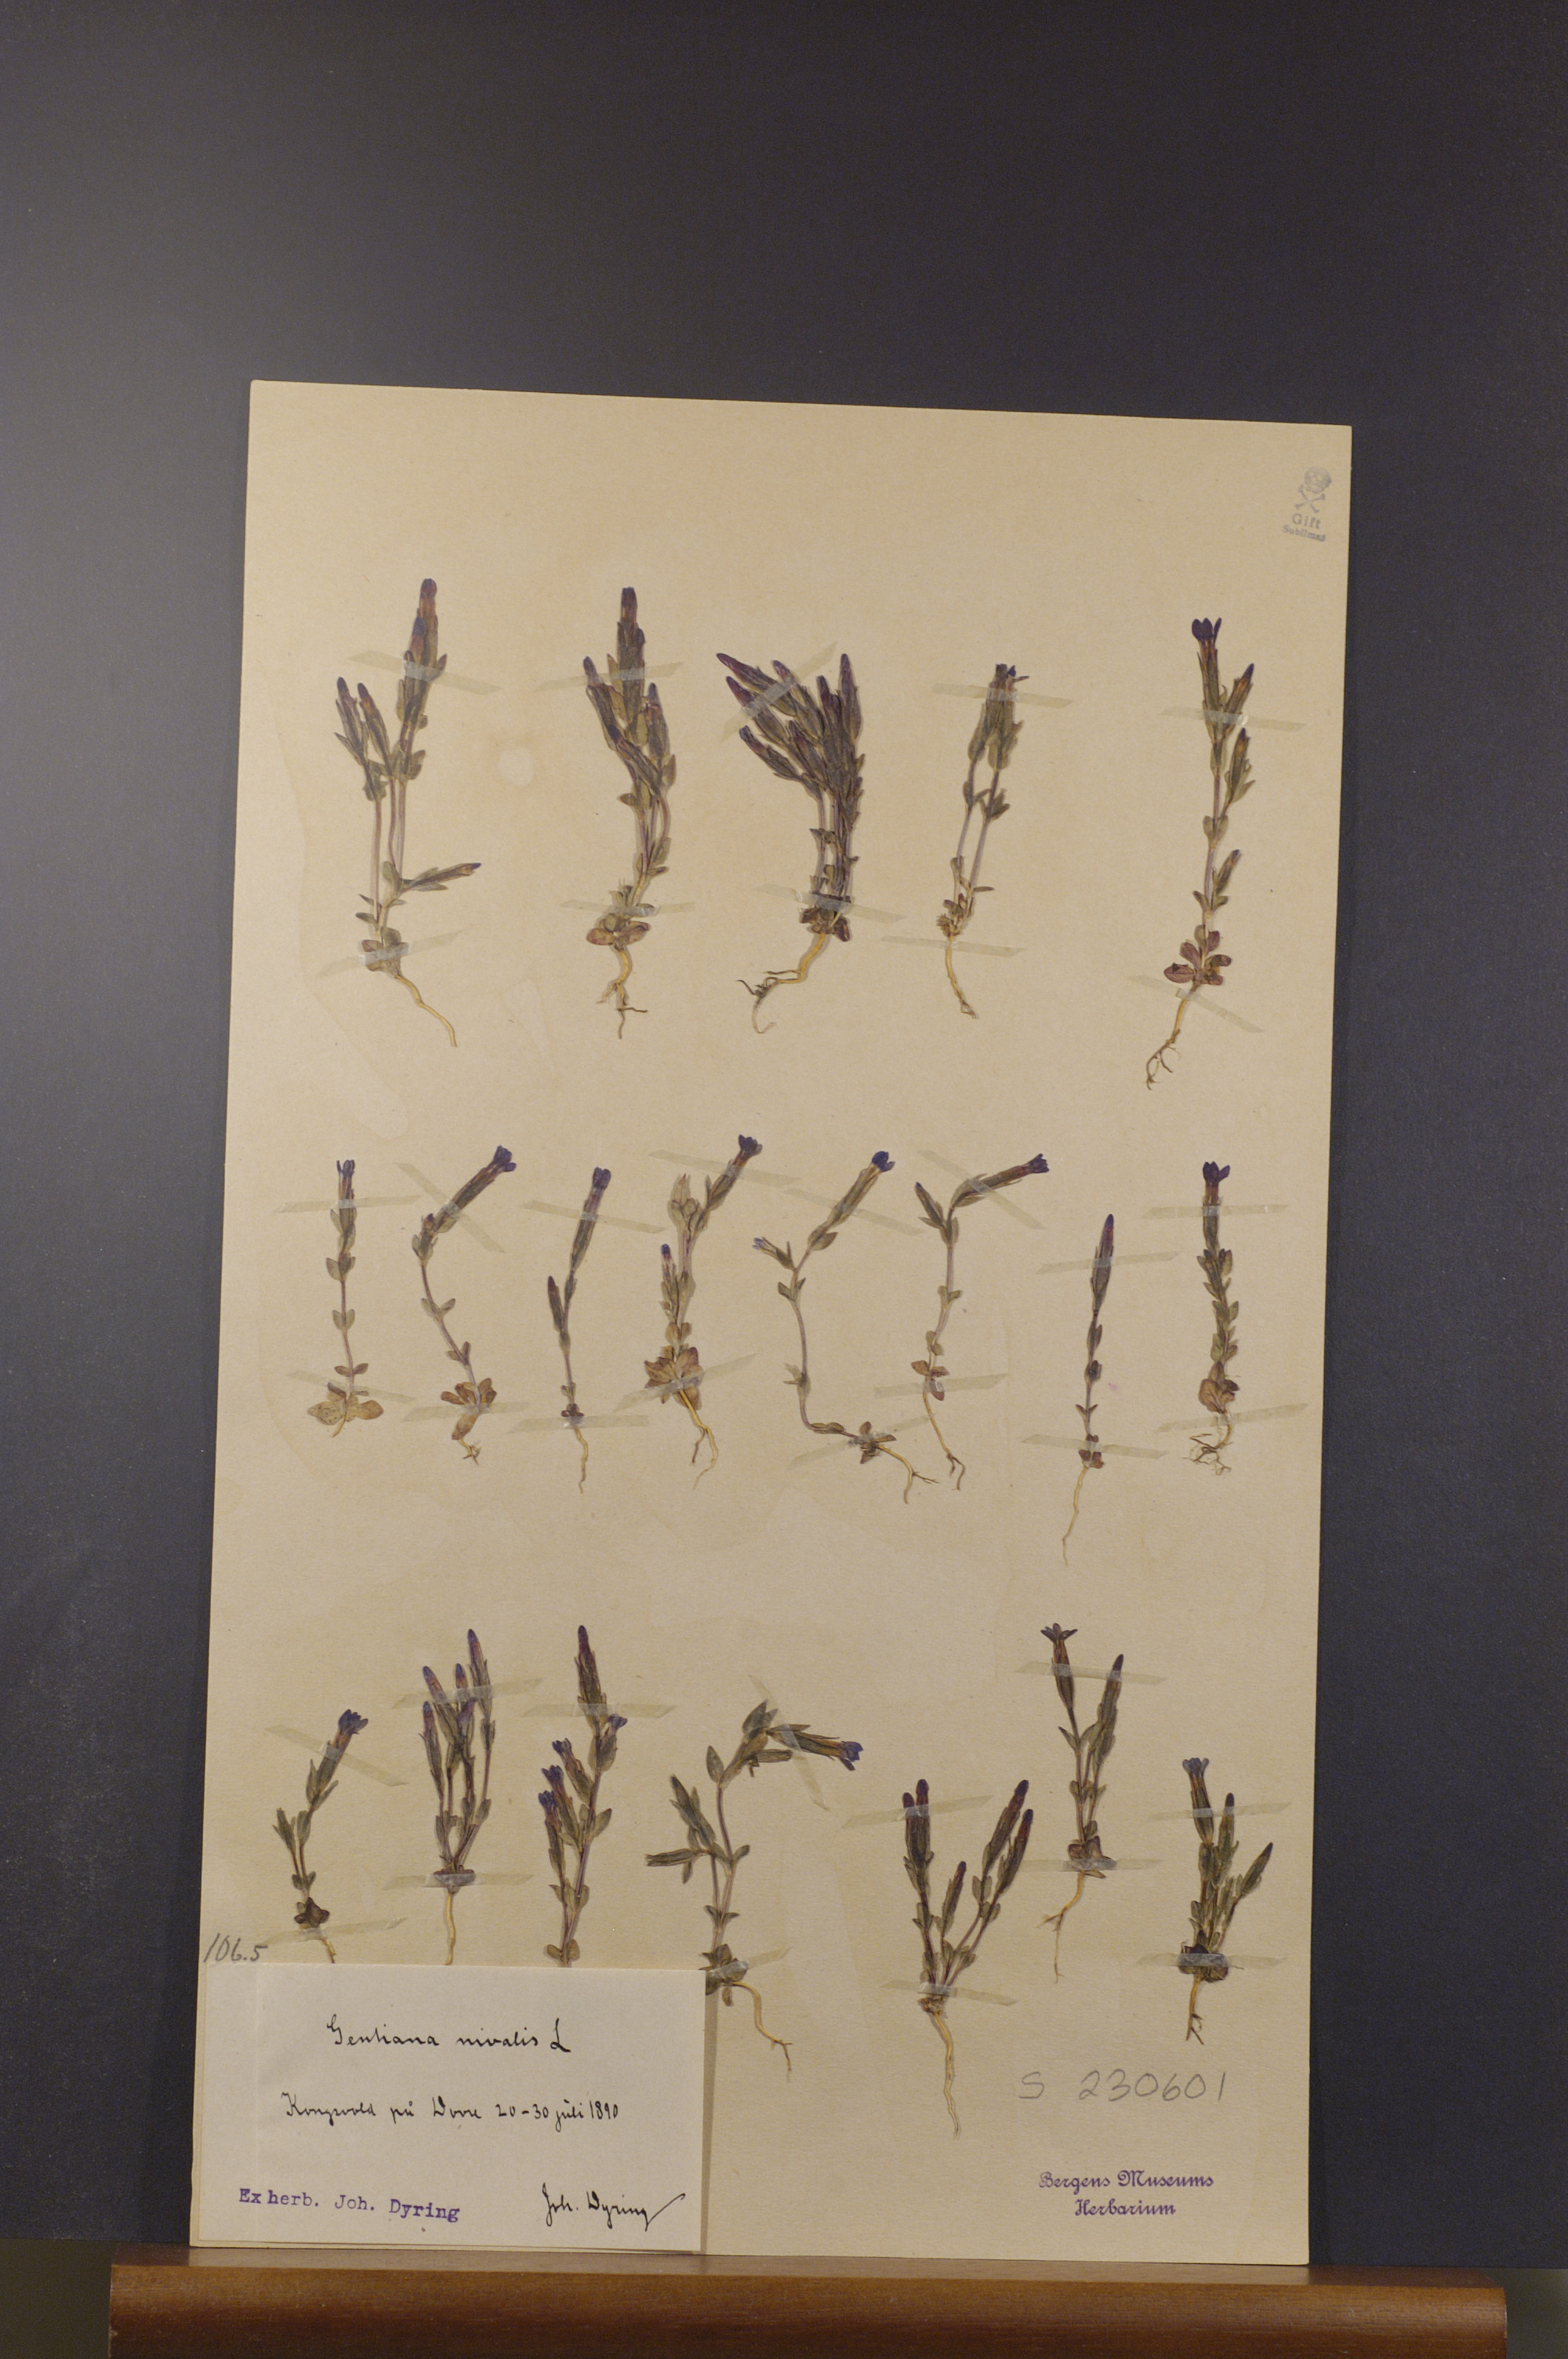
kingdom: Plantae
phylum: Tracheophyta
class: Magnoliopsida
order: Gentianales
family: Gentianaceae
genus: Gentiana
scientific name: Gentiana nivalis
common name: Alpine gentian
